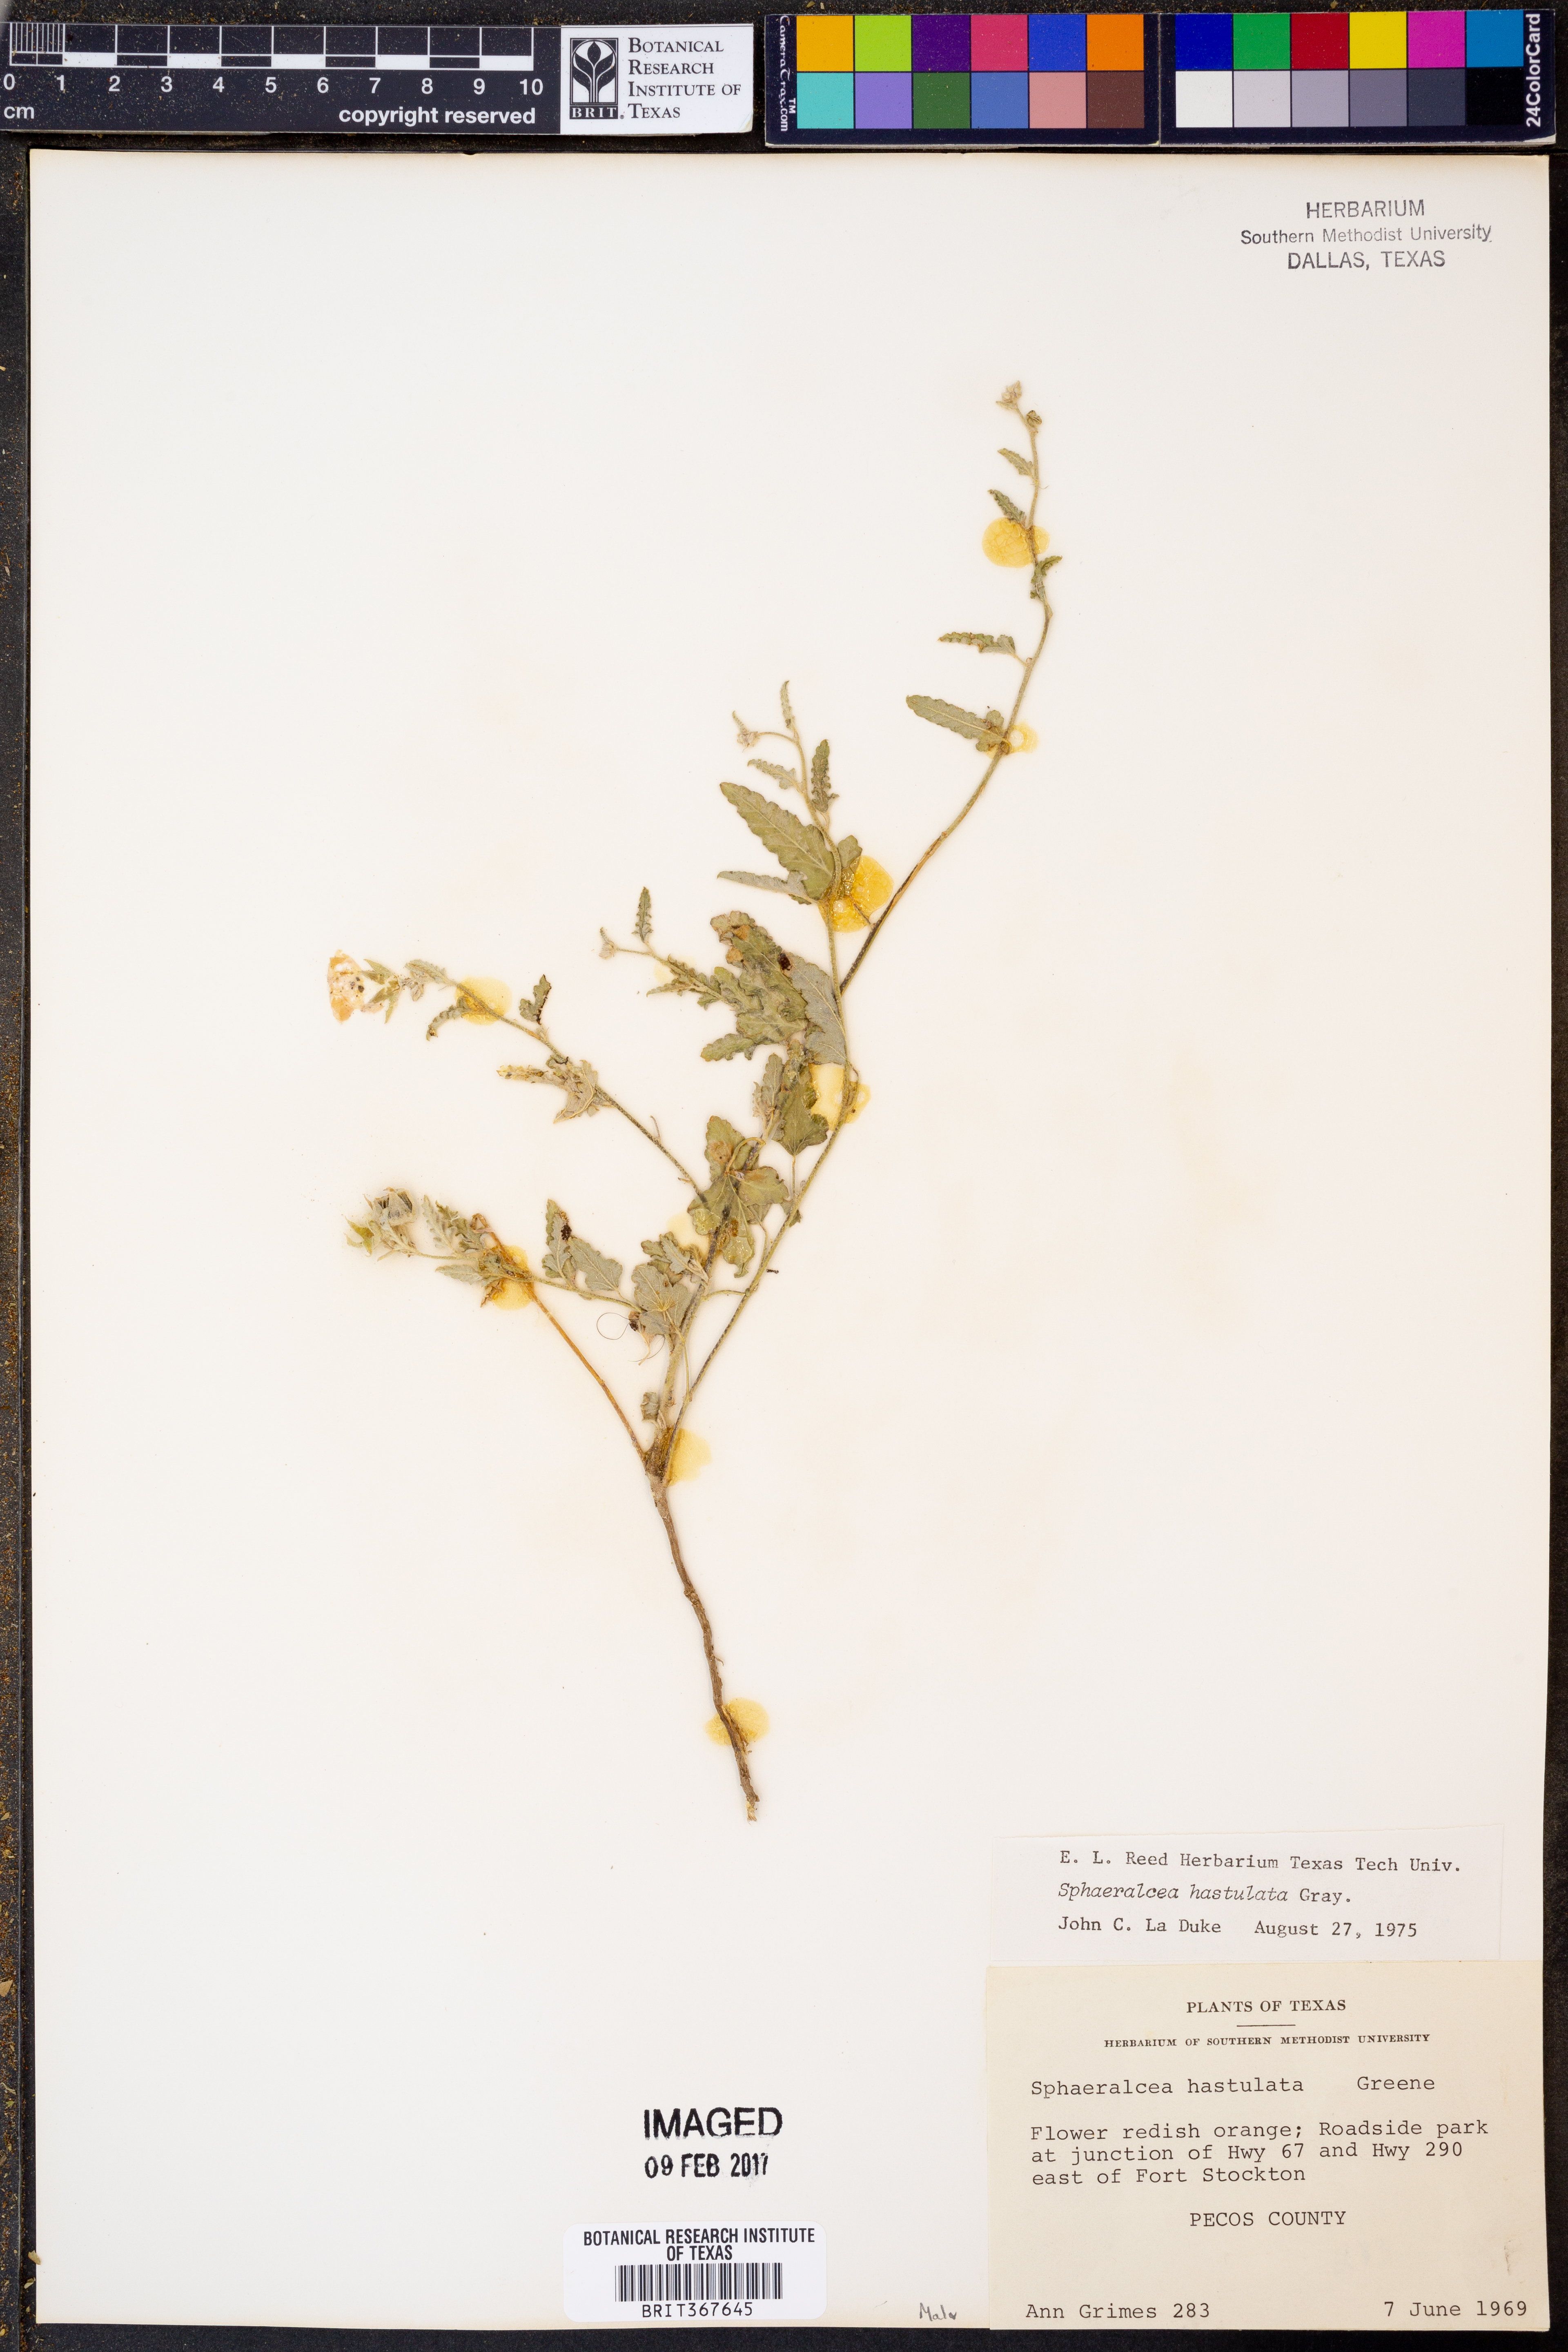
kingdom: Plantae
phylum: Tracheophyta
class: Magnoliopsida
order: Malvales
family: Malvaceae
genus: Sphaeralcea
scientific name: Sphaeralcea hastulata
